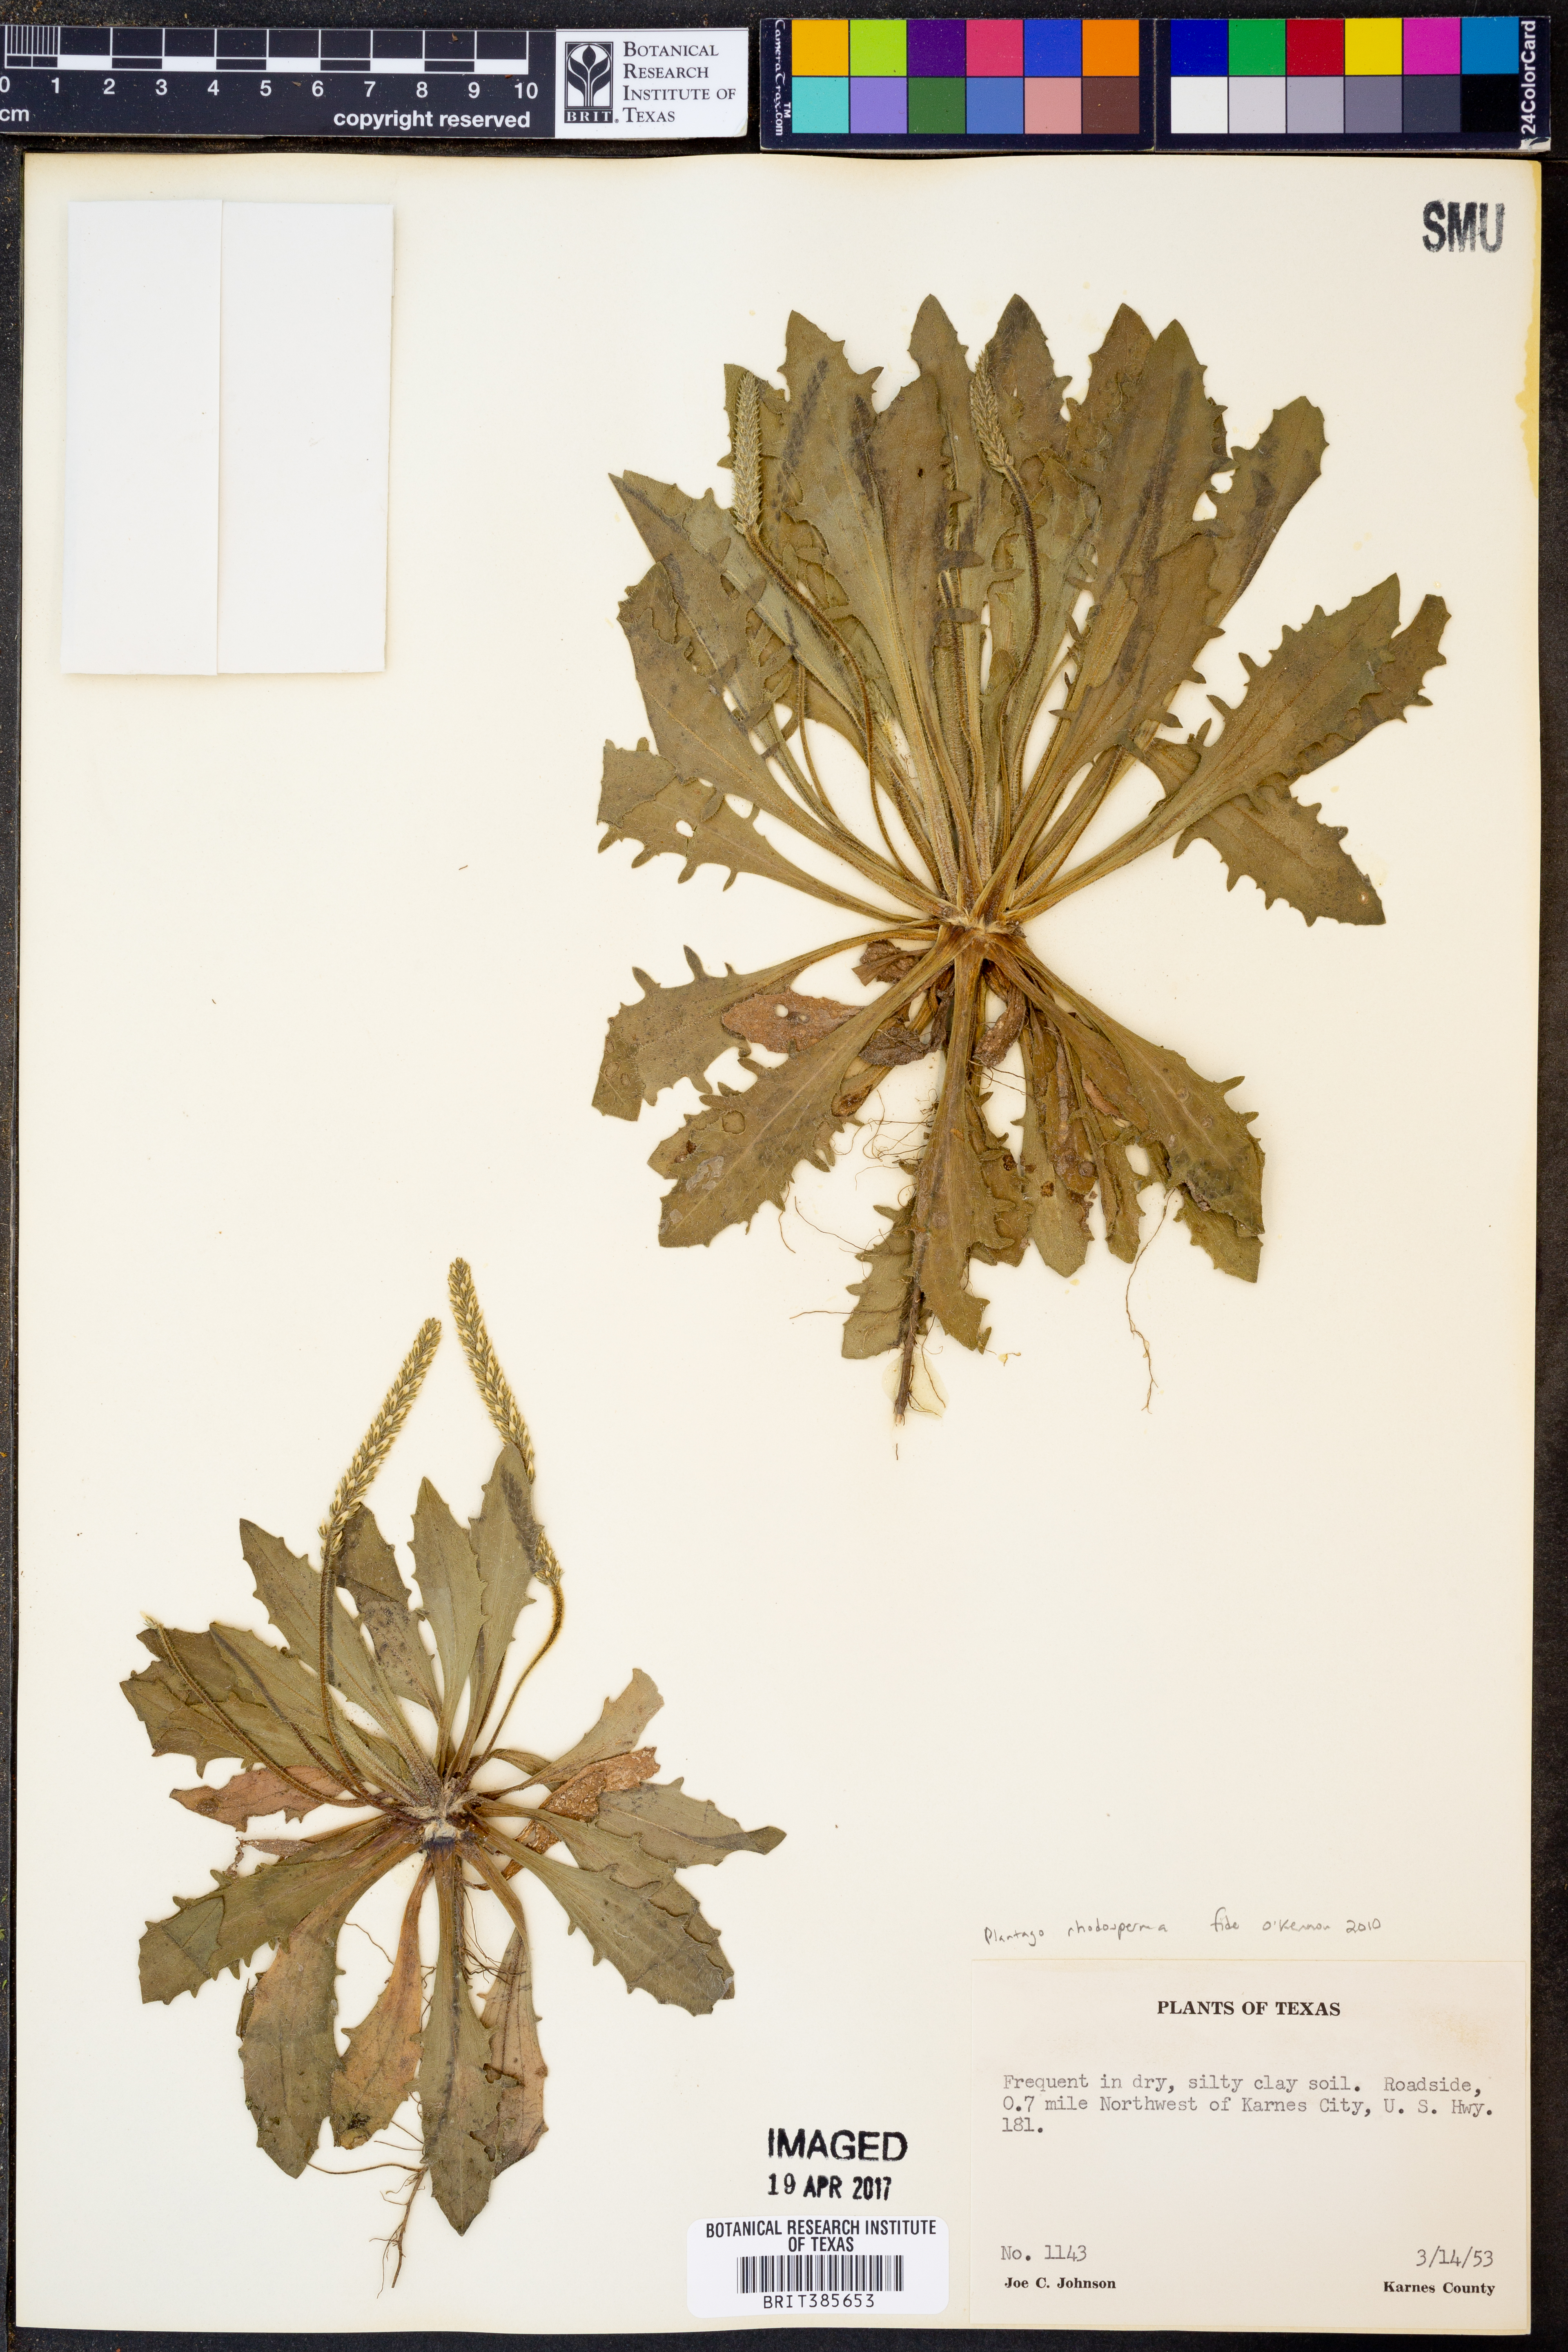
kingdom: Plantae
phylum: Tracheophyta
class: Magnoliopsida
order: Lamiales
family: Plantaginaceae
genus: Plantago
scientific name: Plantago rhodosperma
